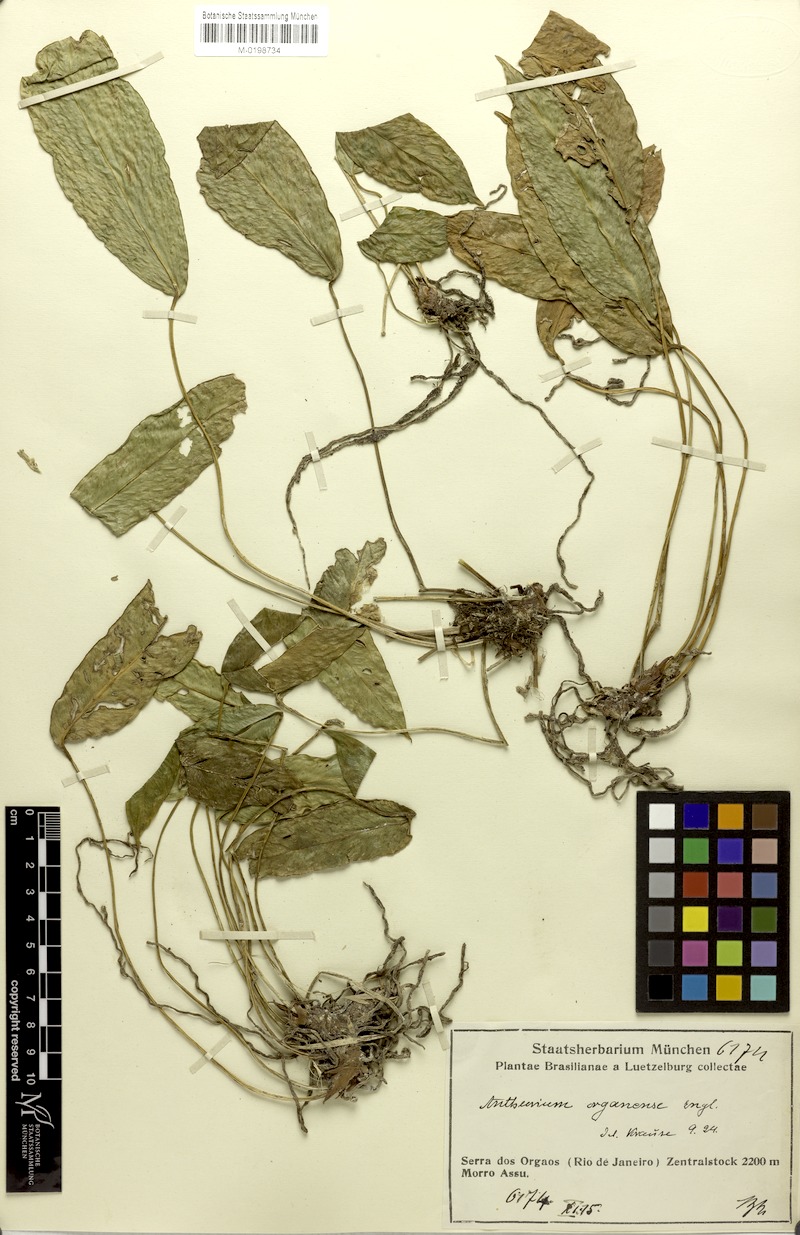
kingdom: Plantae
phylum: Tracheophyta
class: Liliopsida
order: Alismatales
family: Araceae
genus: Anthurium
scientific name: Anthurium organense
